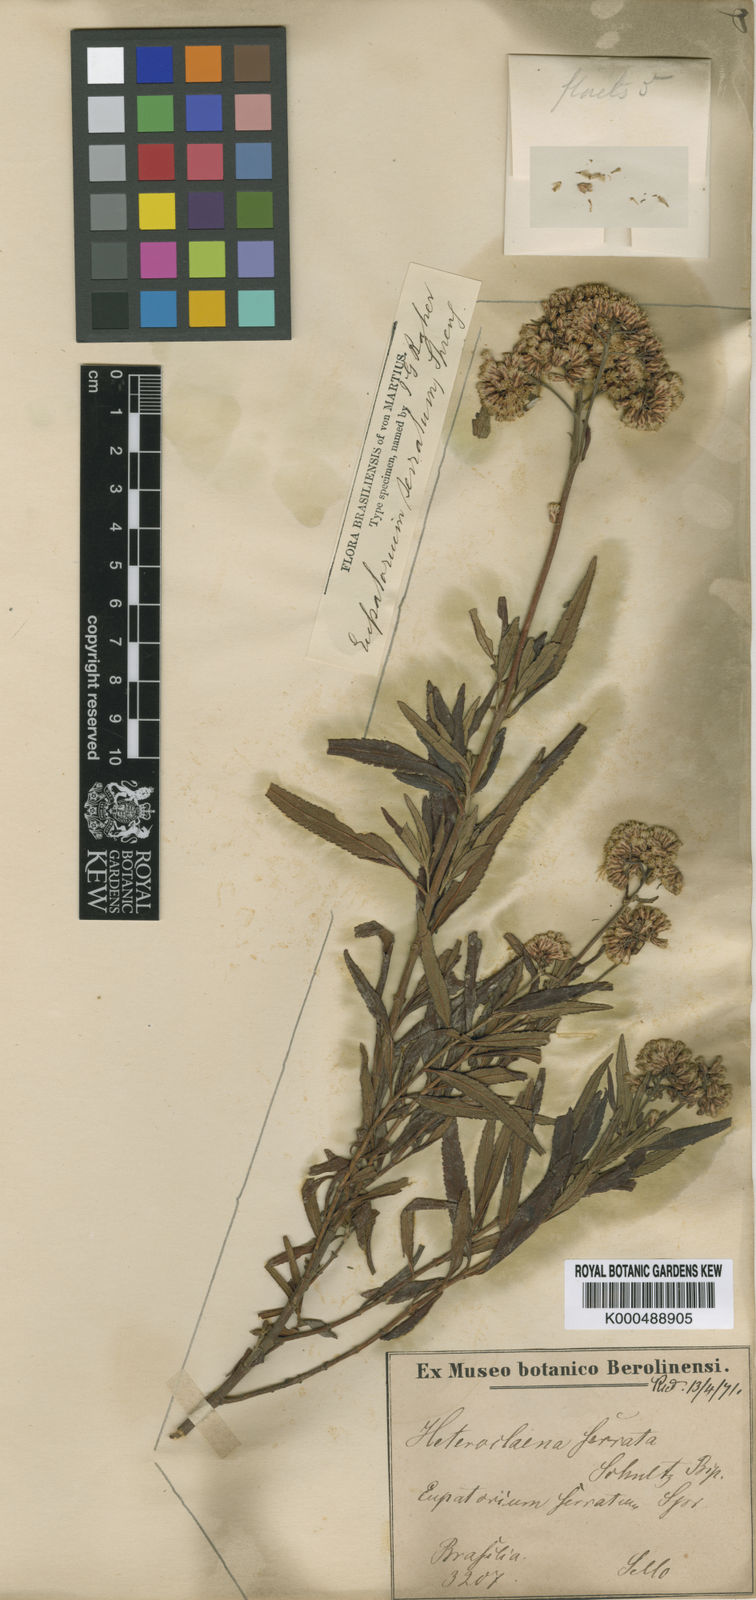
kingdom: Plantae
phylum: Tracheophyta
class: Magnoliopsida
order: Asterales
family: Asteraceae
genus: Grazielia
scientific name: Grazielia serrata
